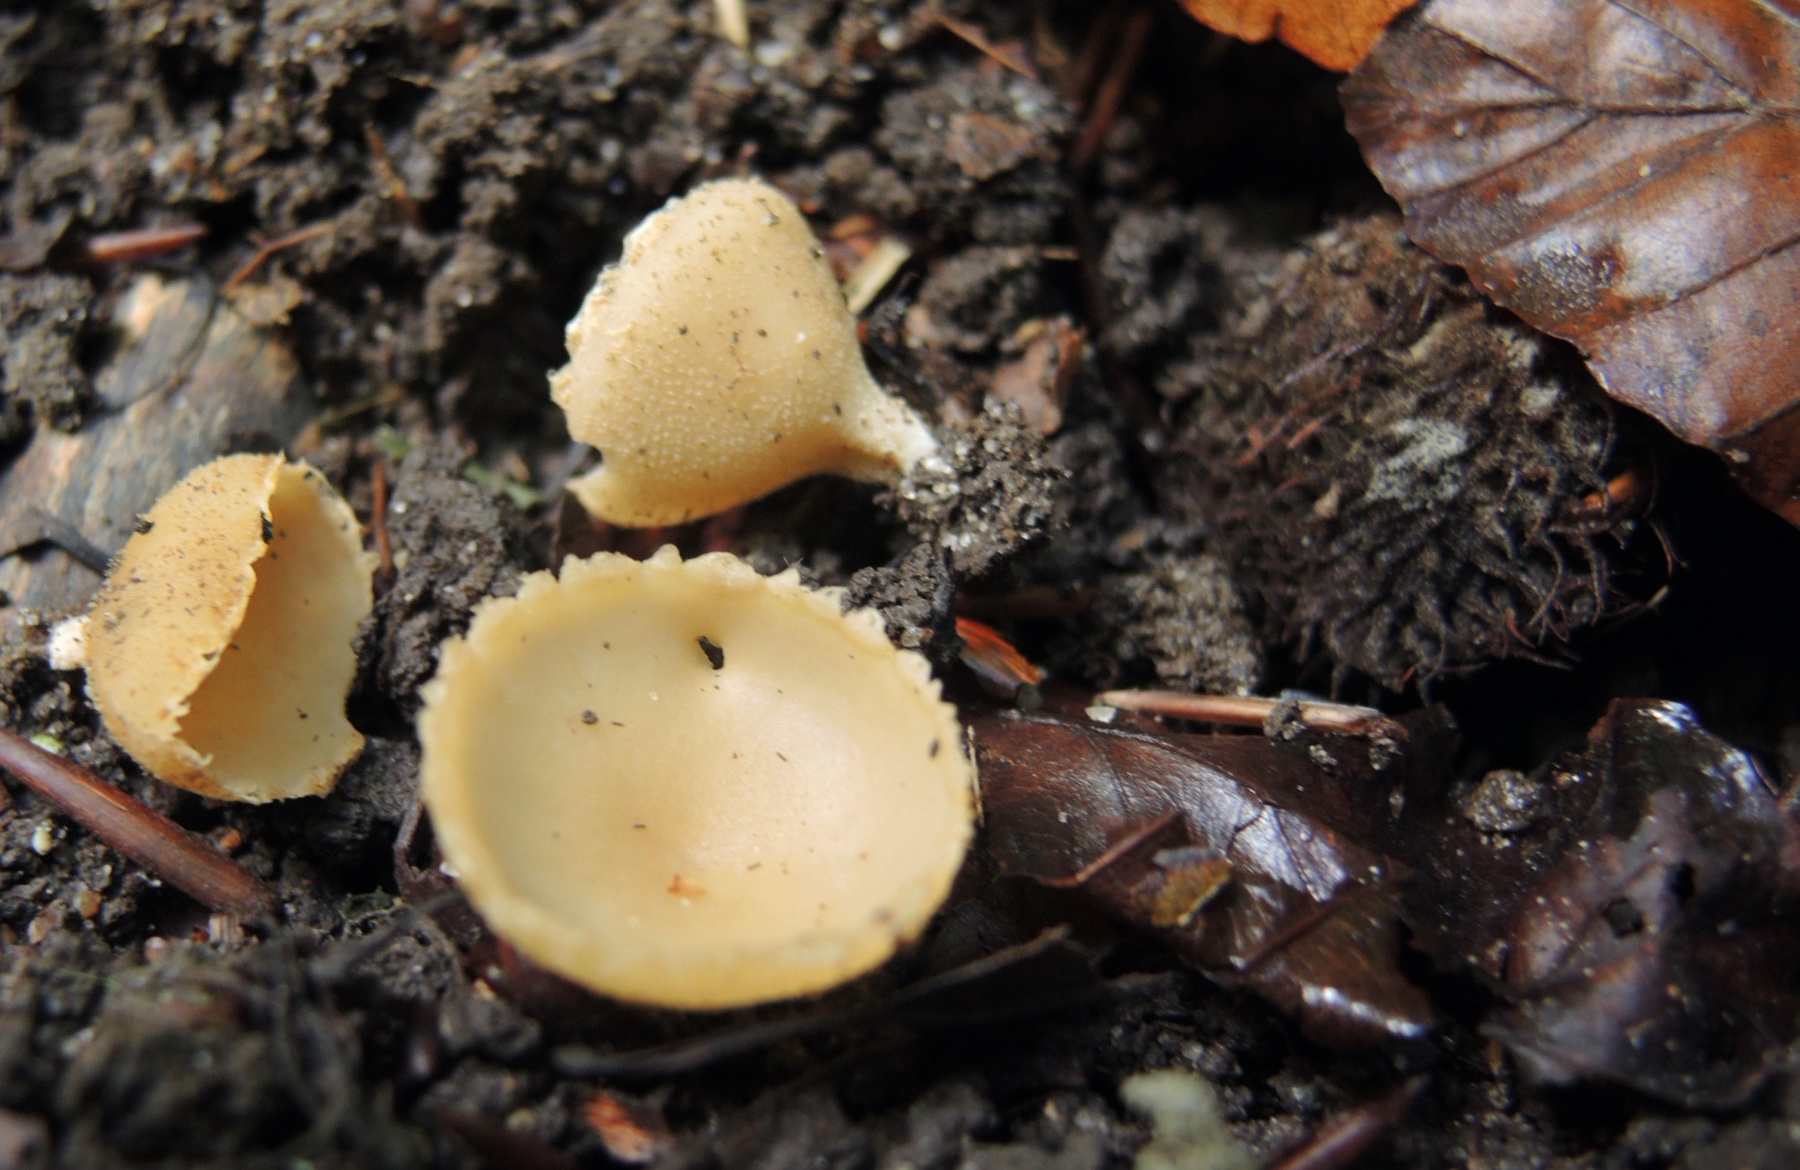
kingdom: Fungi
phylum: Ascomycota
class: Pezizomycetes
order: Pezizales
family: Pyronemataceae
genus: Tarzetta
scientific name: Tarzetta cupularis
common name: gulbrun pokalbæger
